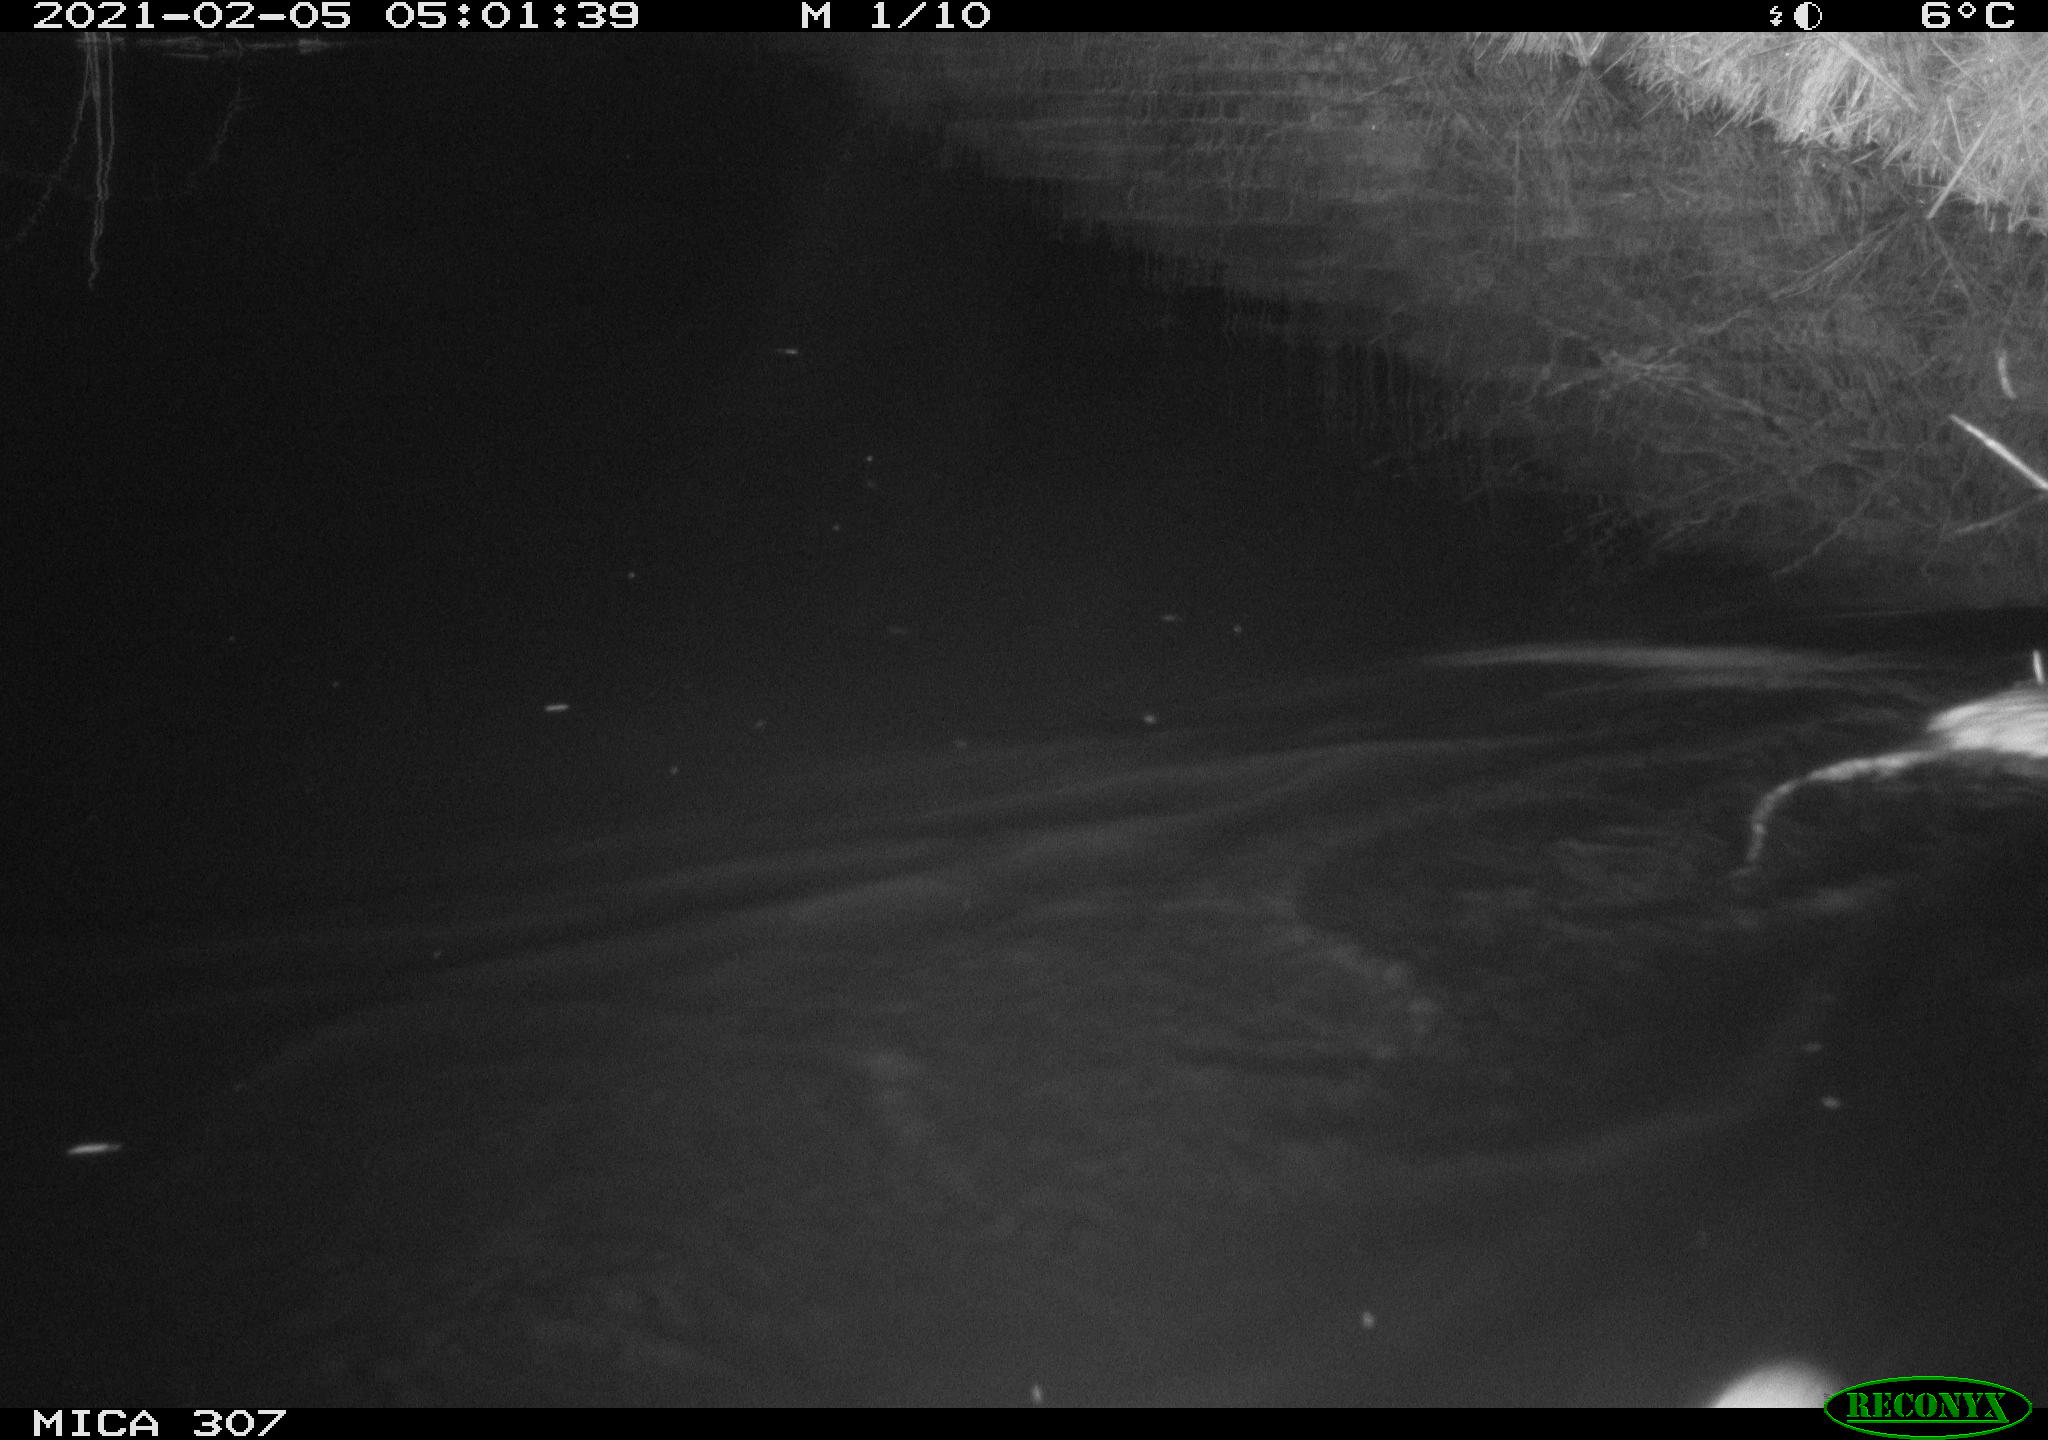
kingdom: Animalia
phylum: Chordata
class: Mammalia
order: Rodentia
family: Cricetidae
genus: Ondatra
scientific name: Ondatra zibethicus
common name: Muskrat
